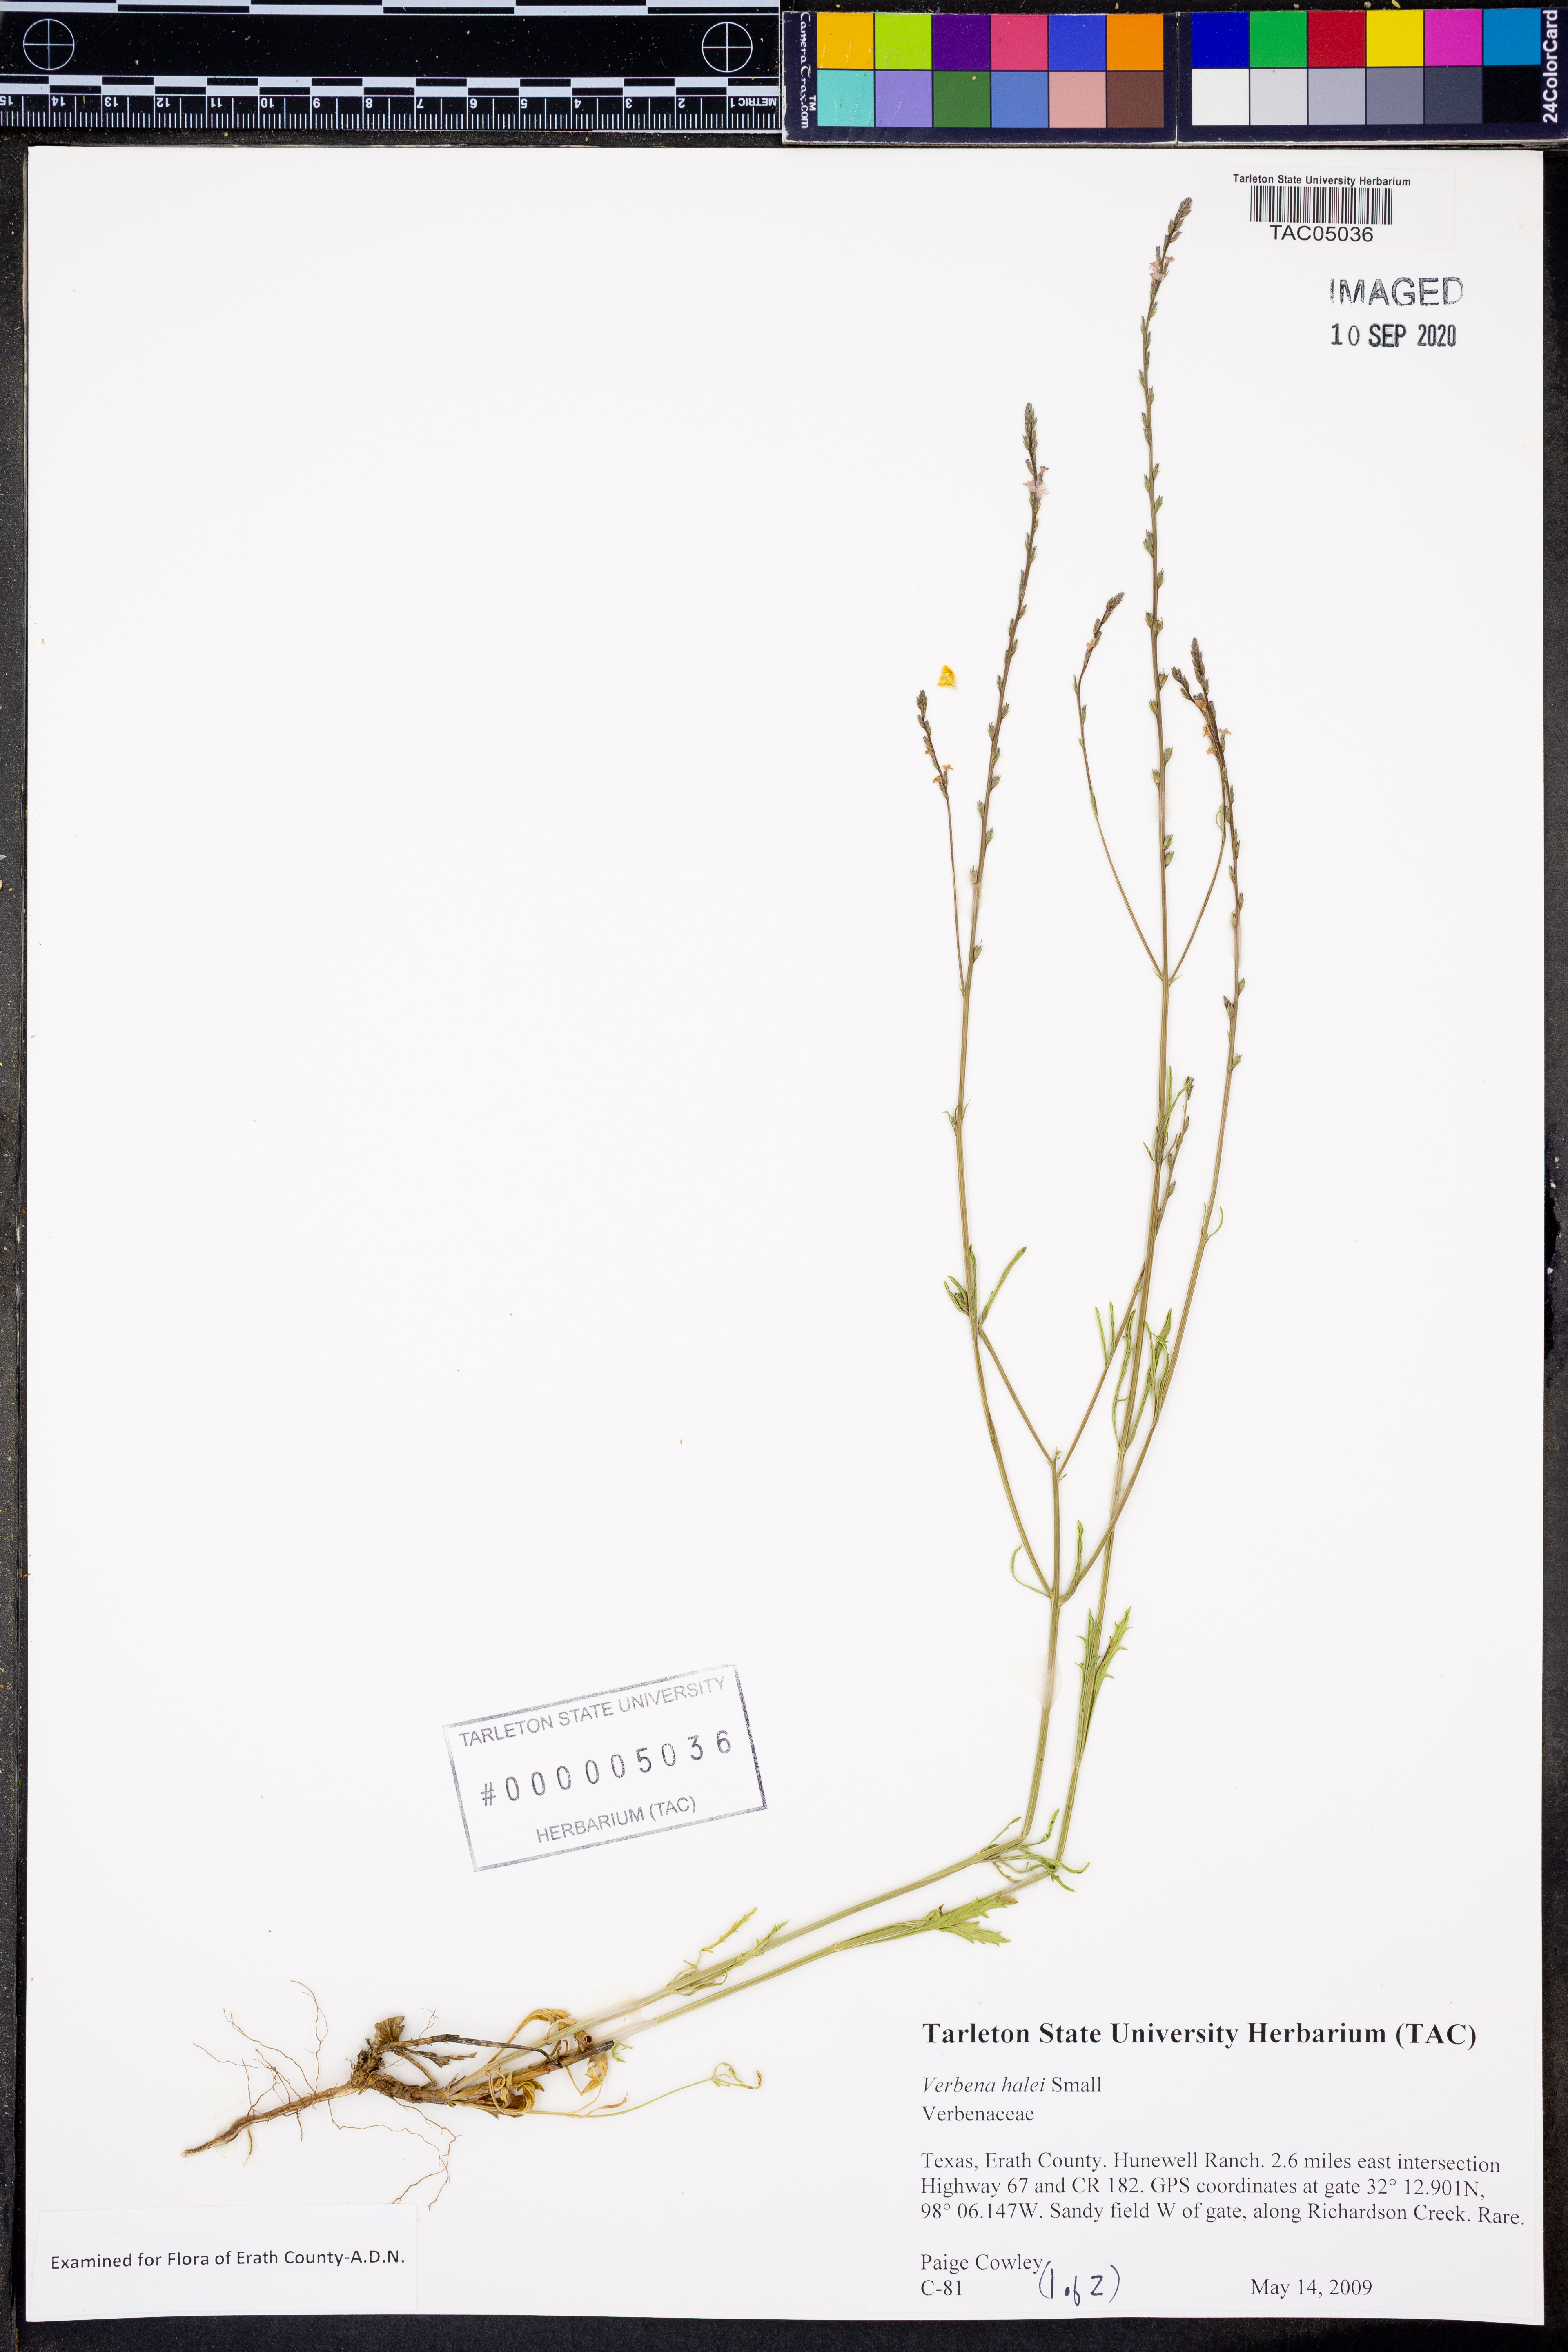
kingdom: Plantae
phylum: Tracheophyta
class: Magnoliopsida
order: Lamiales
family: Verbenaceae
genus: Verbena
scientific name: Verbena halei
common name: Texas vervain
